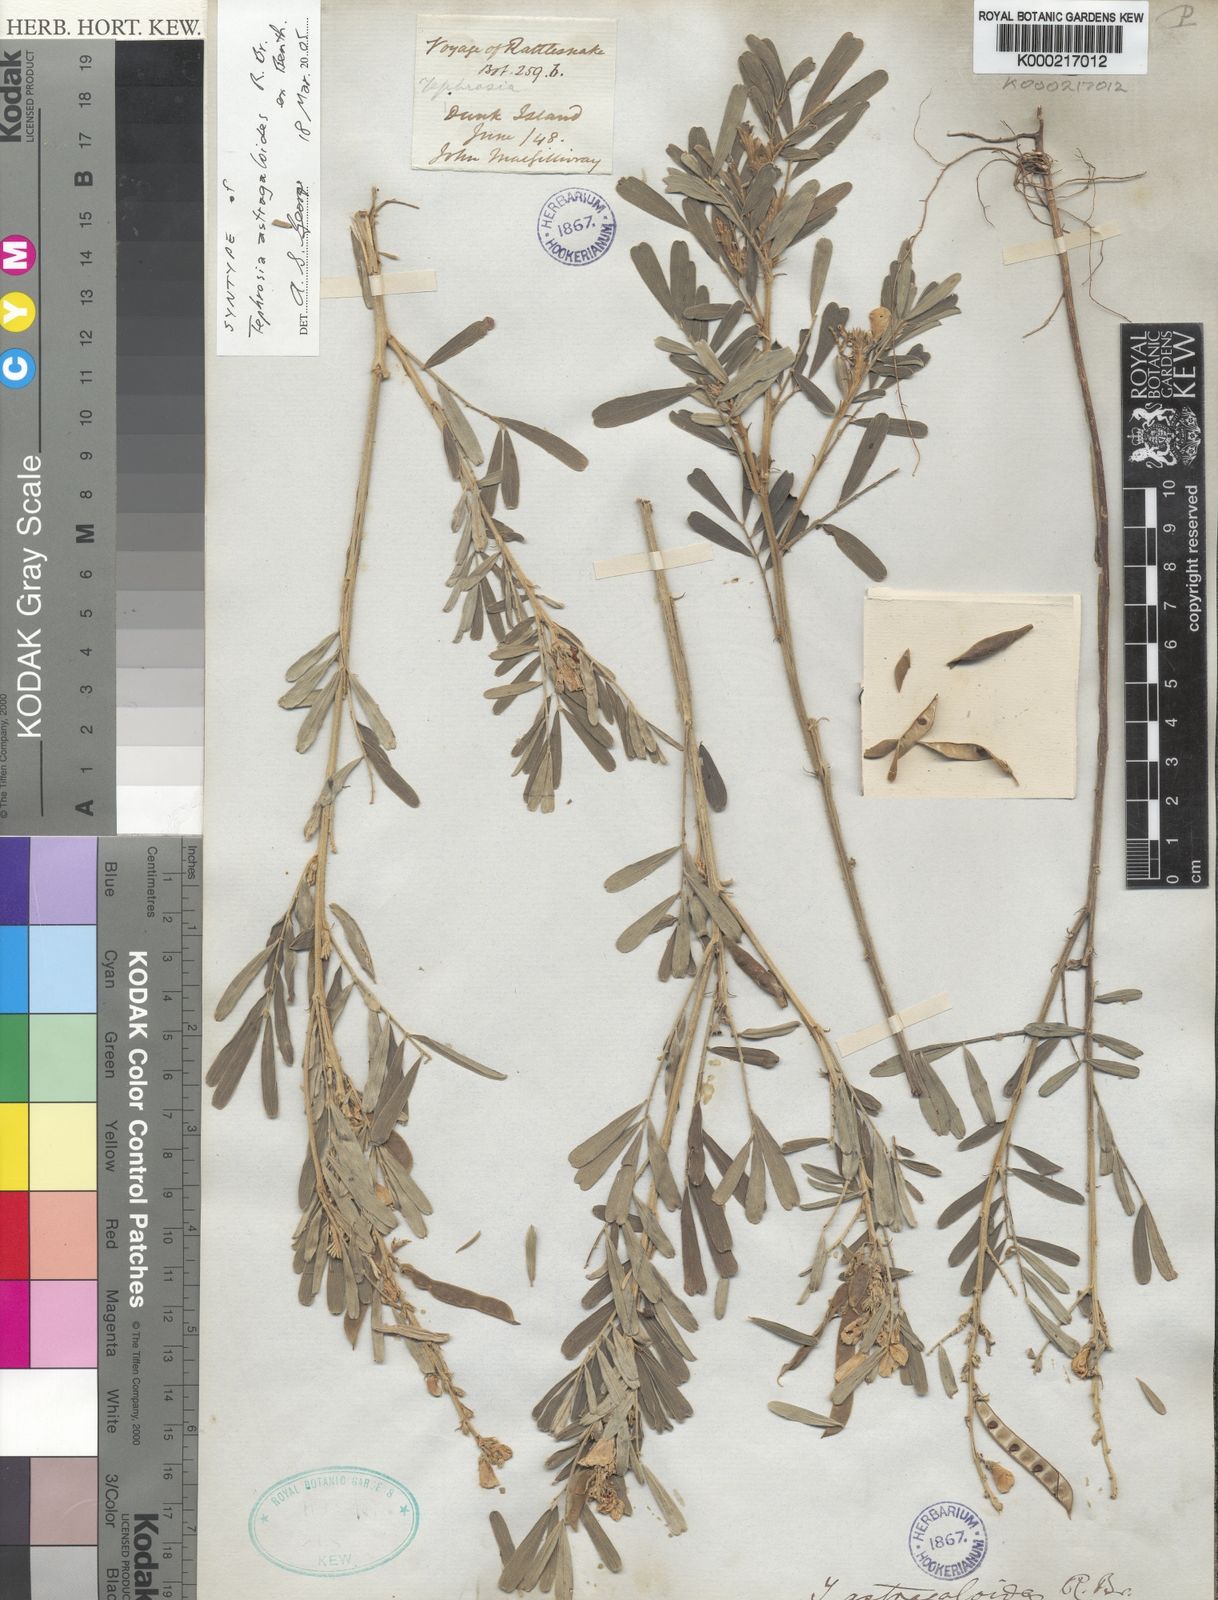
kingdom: Plantae
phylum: Tracheophyta
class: Magnoliopsida
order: Fabales
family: Fabaceae
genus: Tephrosia
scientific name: Tephrosia astragaloides
